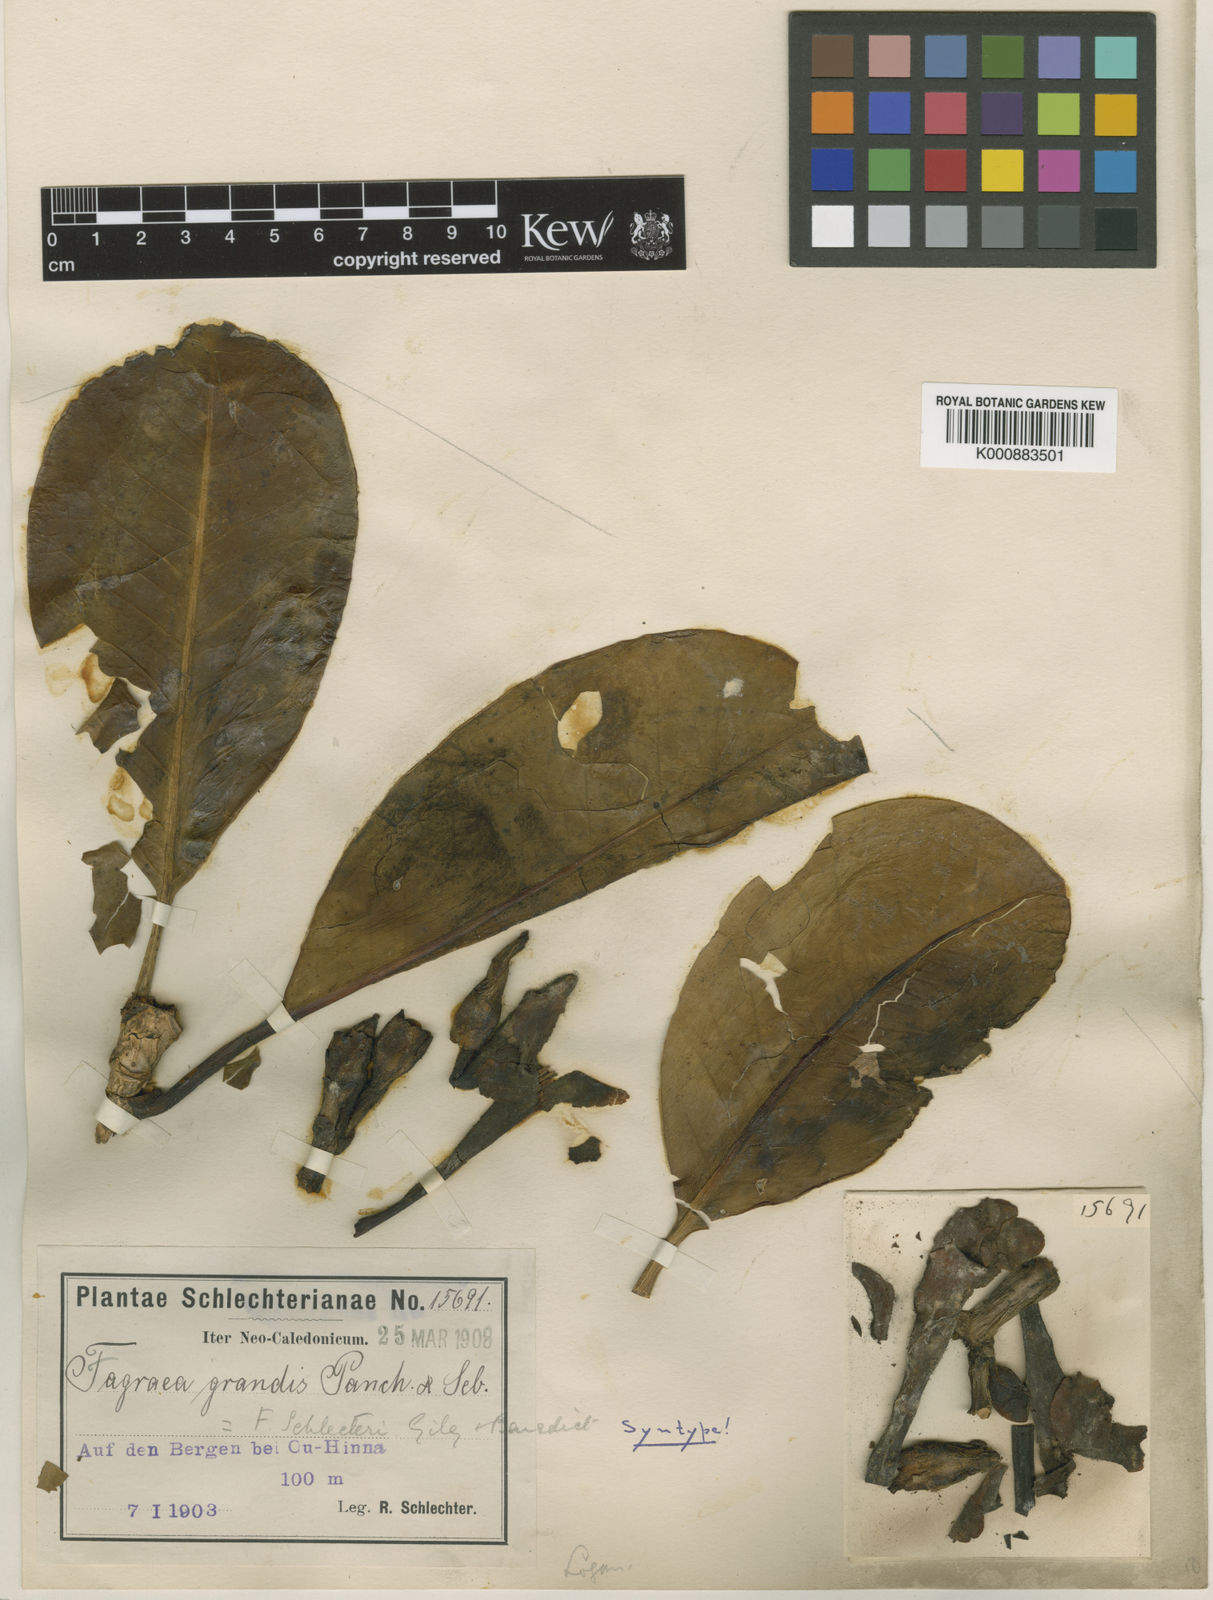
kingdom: Plantae
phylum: Tracheophyta
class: Magnoliopsida
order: Gentianales
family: Gentianaceae
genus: Fagraea
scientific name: Fagraea berteroana
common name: Cape jitta
